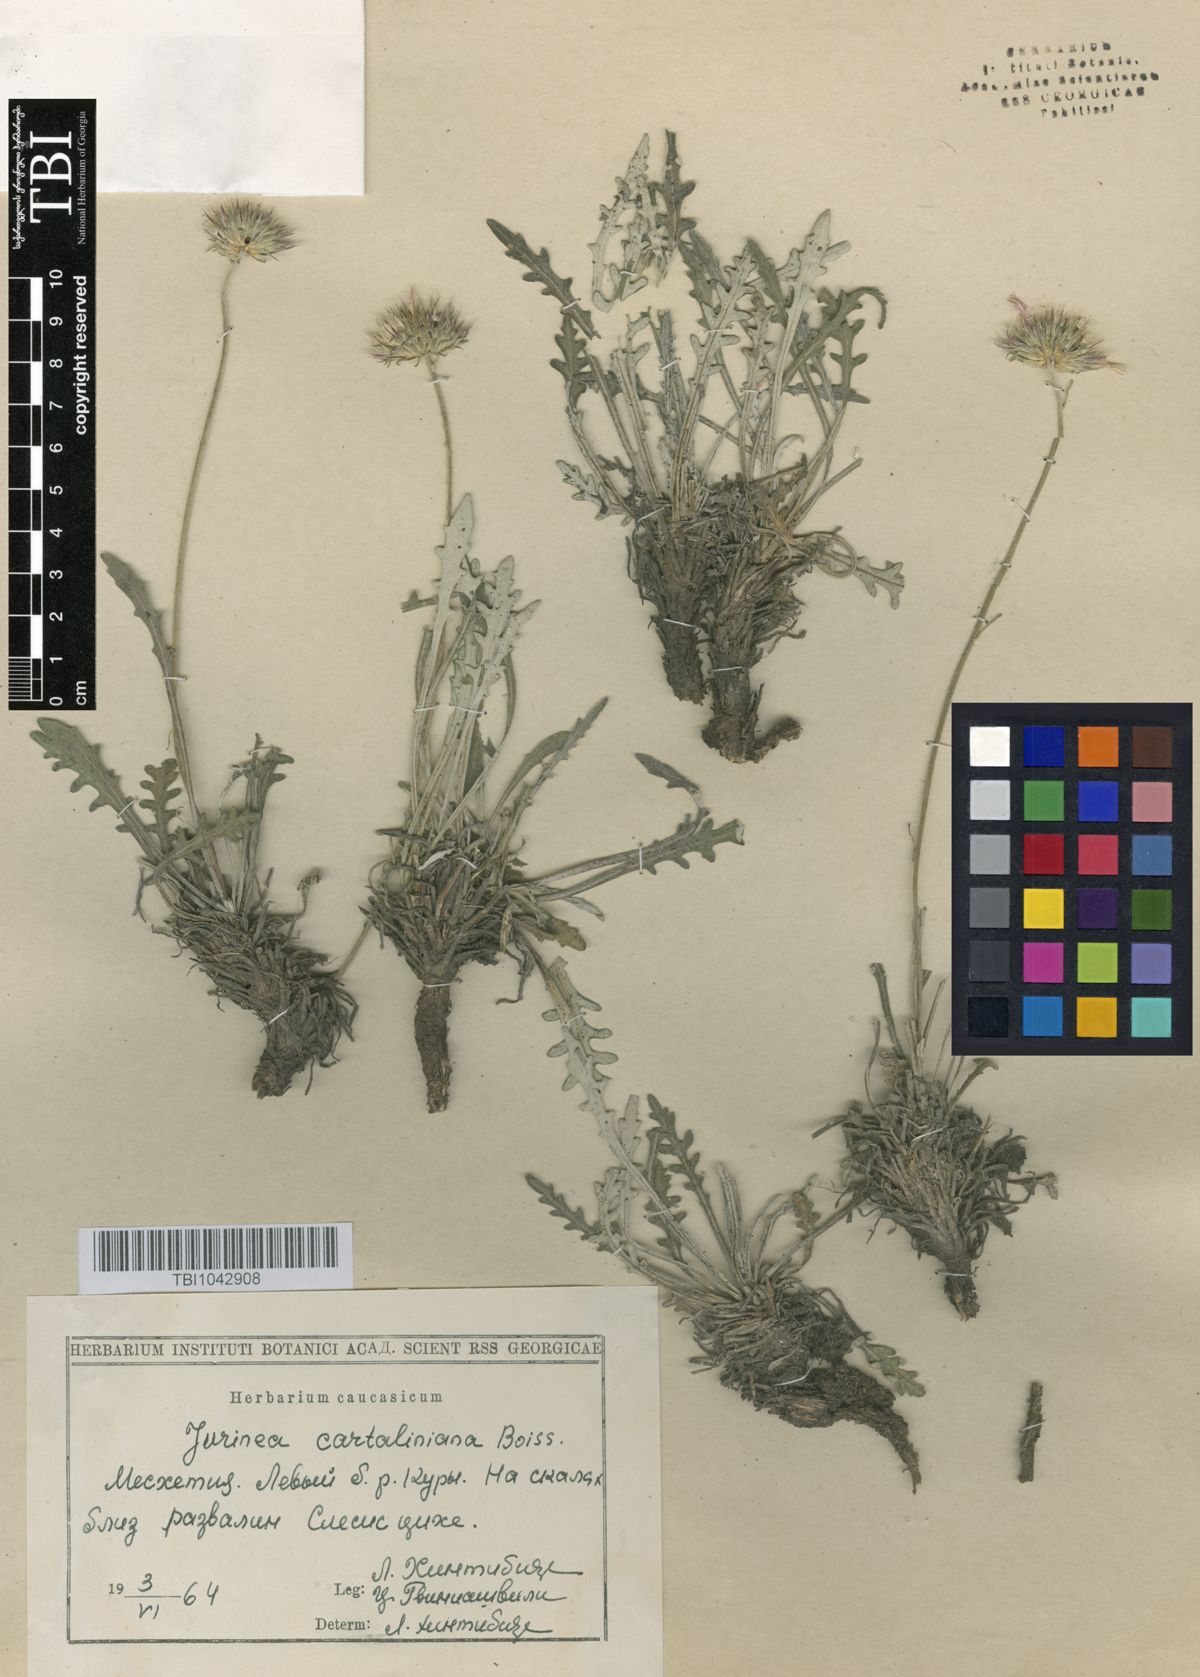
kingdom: Plantae
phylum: Tracheophyta
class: Magnoliopsida
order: Asterales
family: Asteraceae
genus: Jurinea
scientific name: Jurinea cartaliniana
